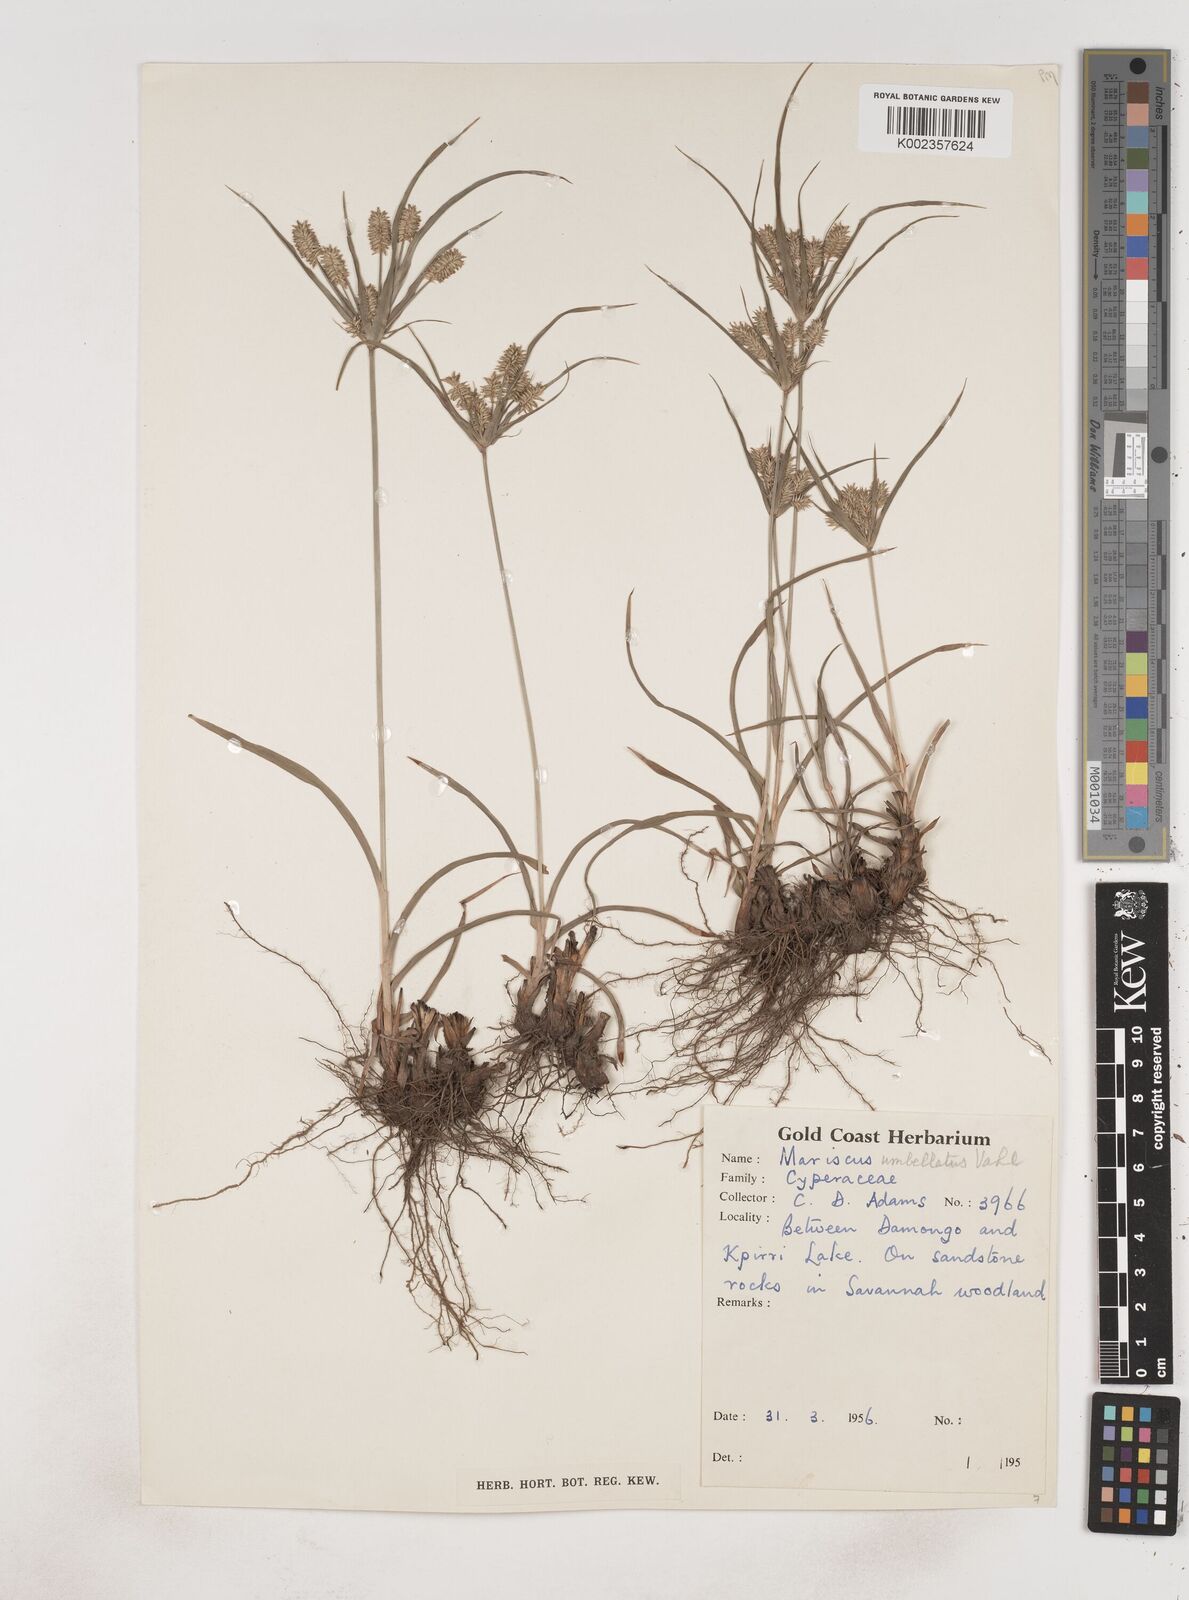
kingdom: Plantae
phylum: Tracheophyta
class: Liliopsida
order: Poales
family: Cyperaceae
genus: Cyperus
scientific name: Cyperus cyperoides
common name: Pacific island flat sedge
